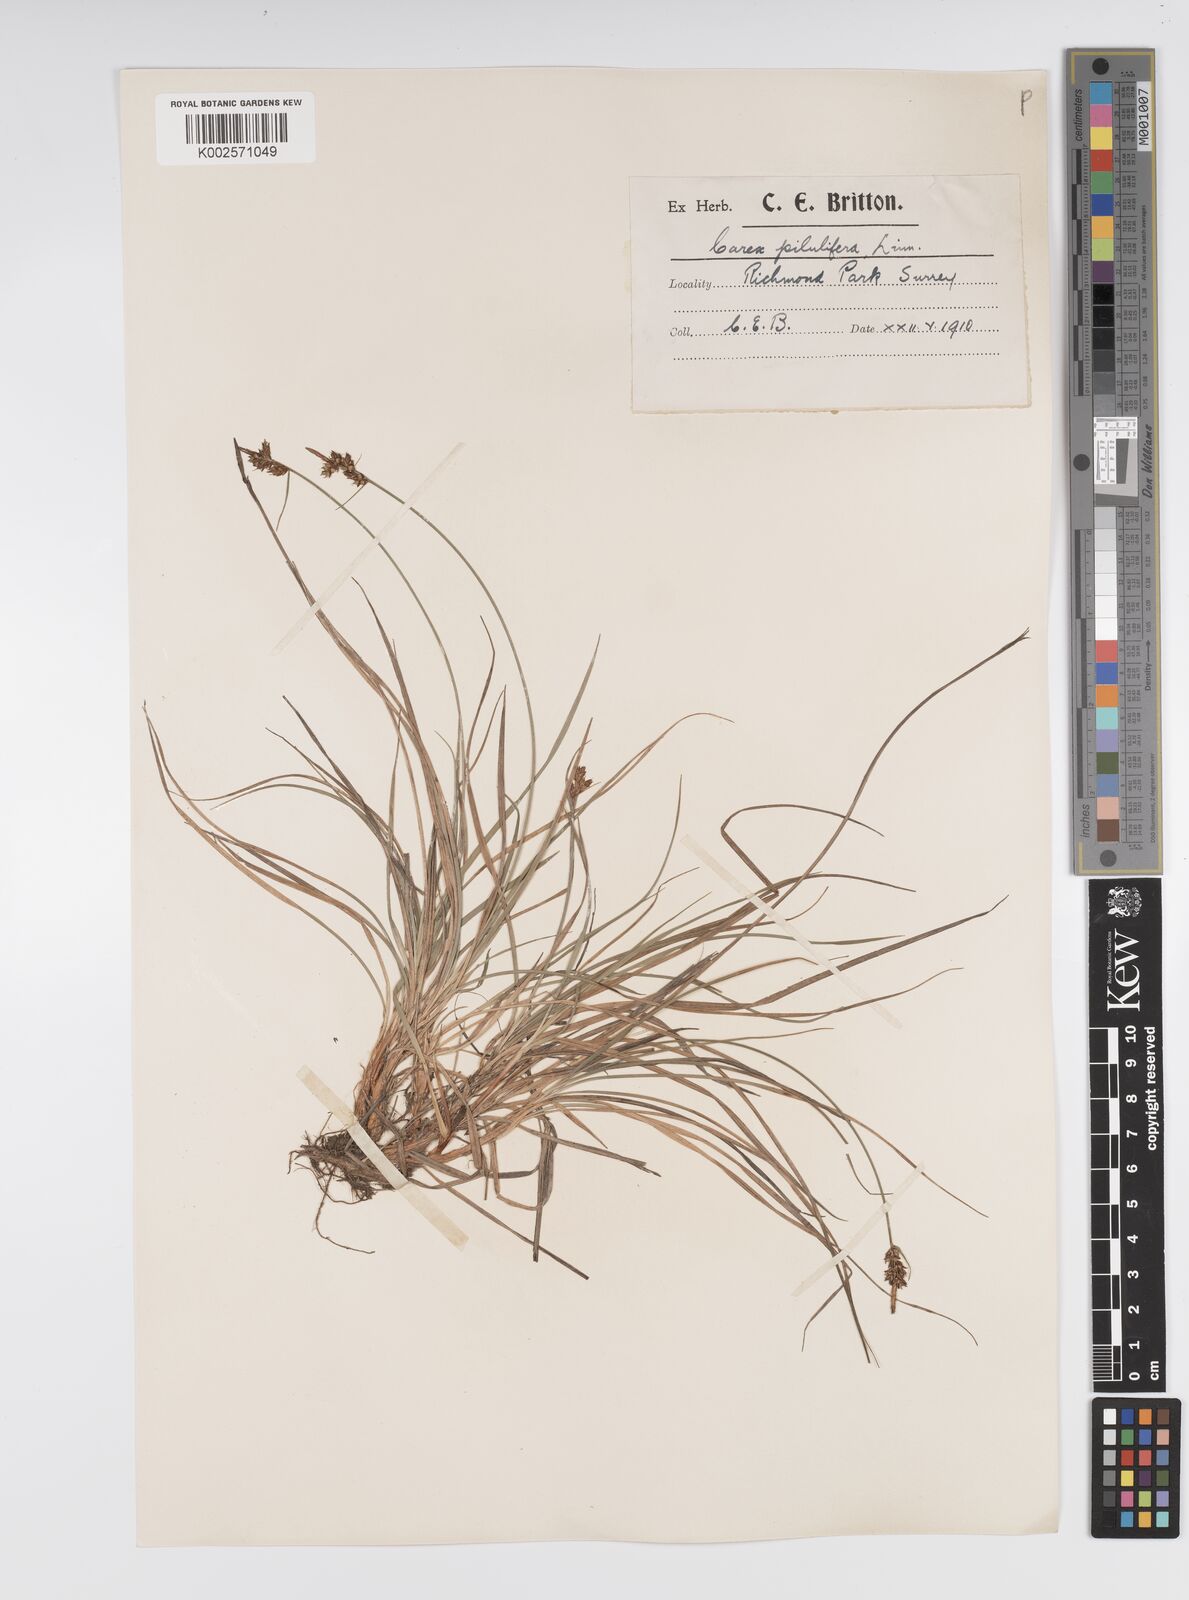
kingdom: Plantae
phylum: Tracheophyta
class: Liliopsida
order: Poales
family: Cyperaceae
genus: Carex
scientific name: Carex pilulifera
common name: Pill sedge
